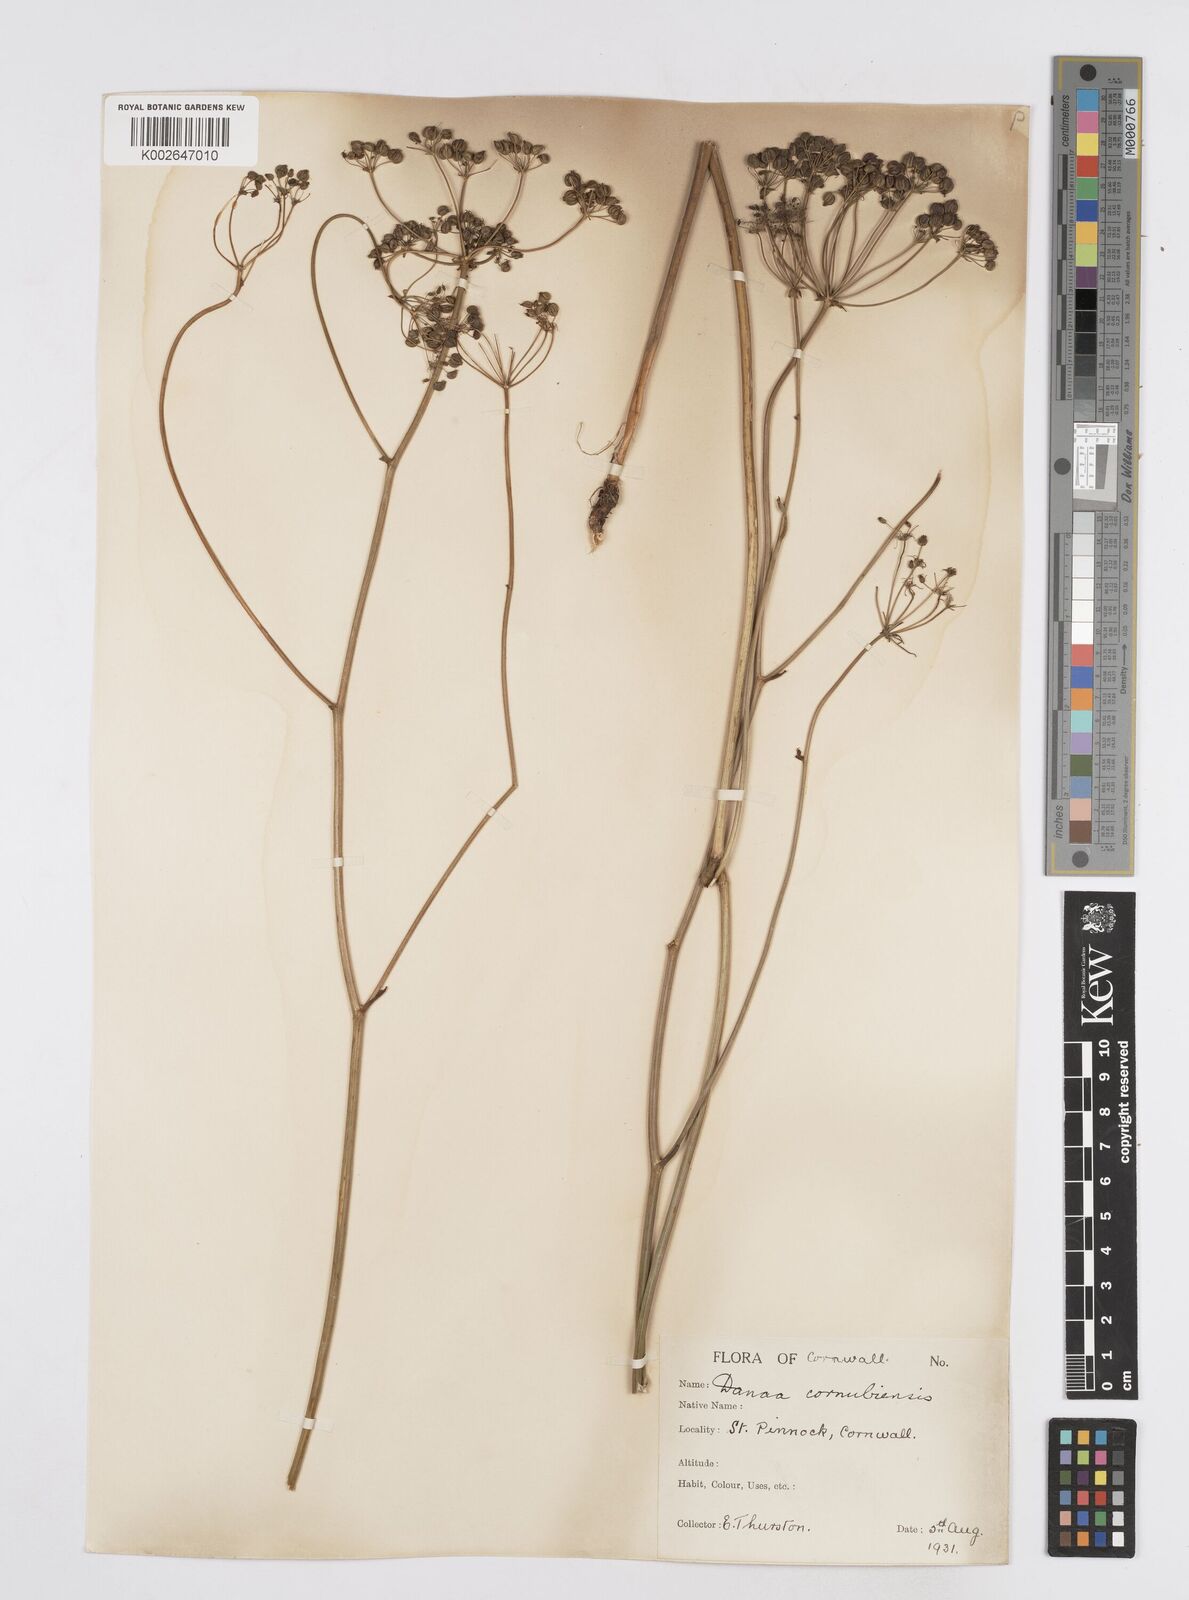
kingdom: Plantae
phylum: Tracheophyta
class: Magnoliopsida
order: Apiales
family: Apiaceae
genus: Physospermum
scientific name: Physospermum cornubiense
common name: Bladderseed
